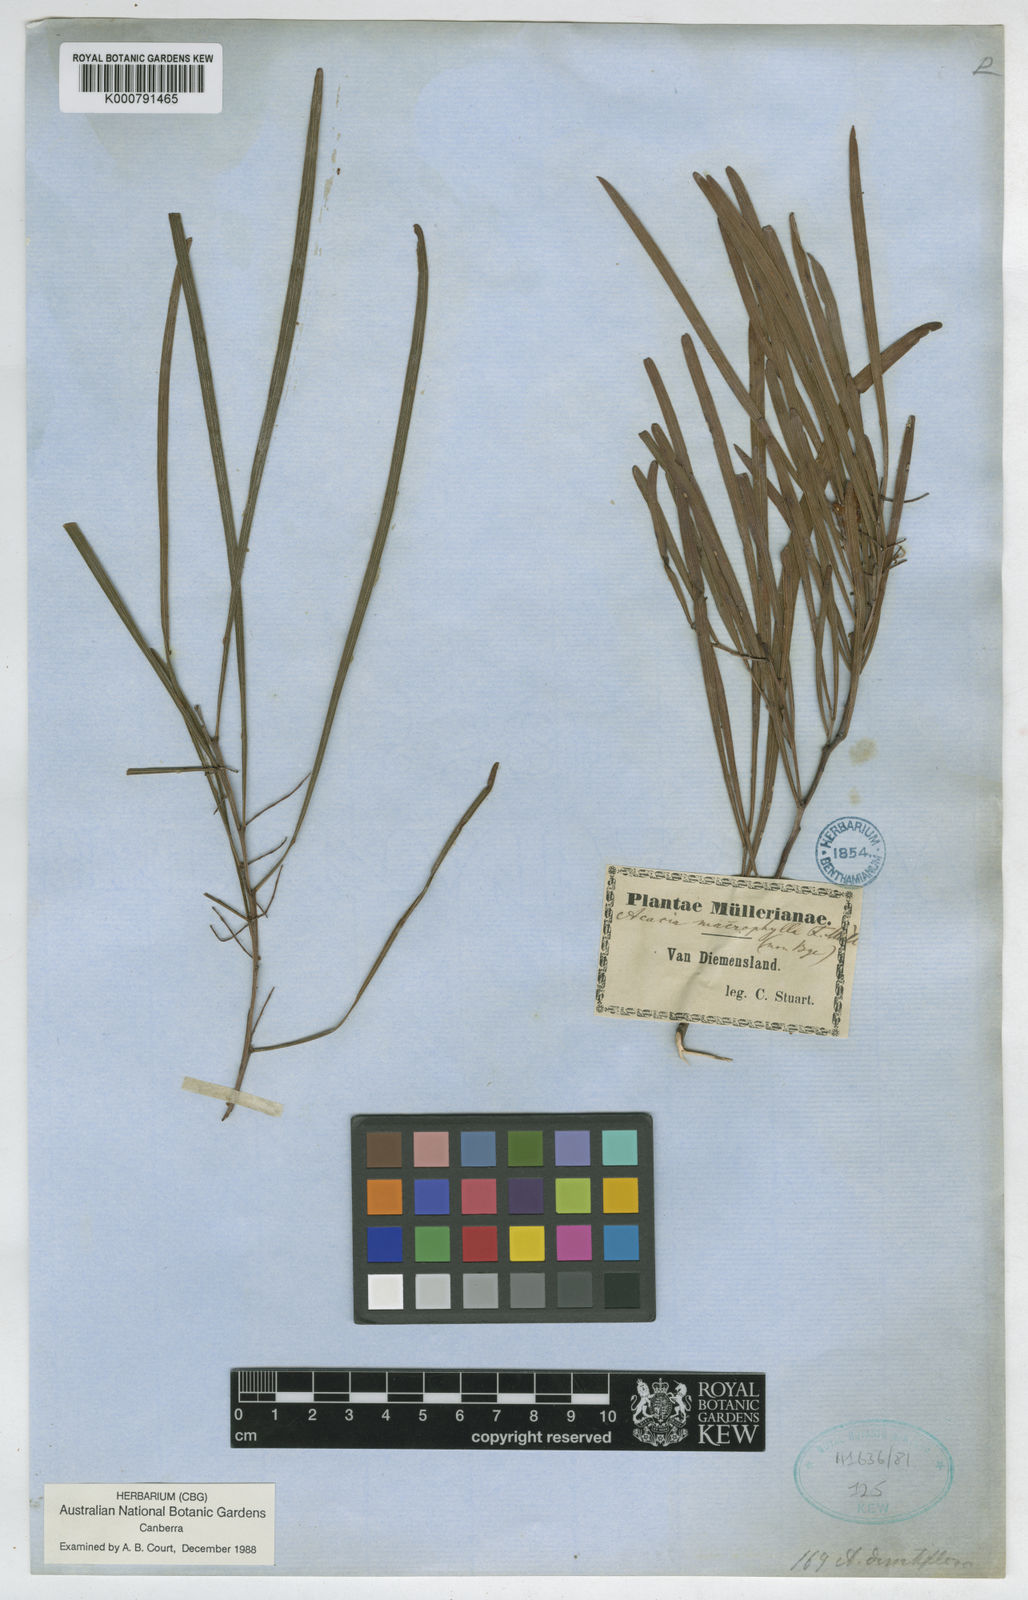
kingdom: Plantae
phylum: Tracheophyta
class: Magnoliopsida
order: Fabales
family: Fabaceae
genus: Acacia
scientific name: Acacia axillaris
